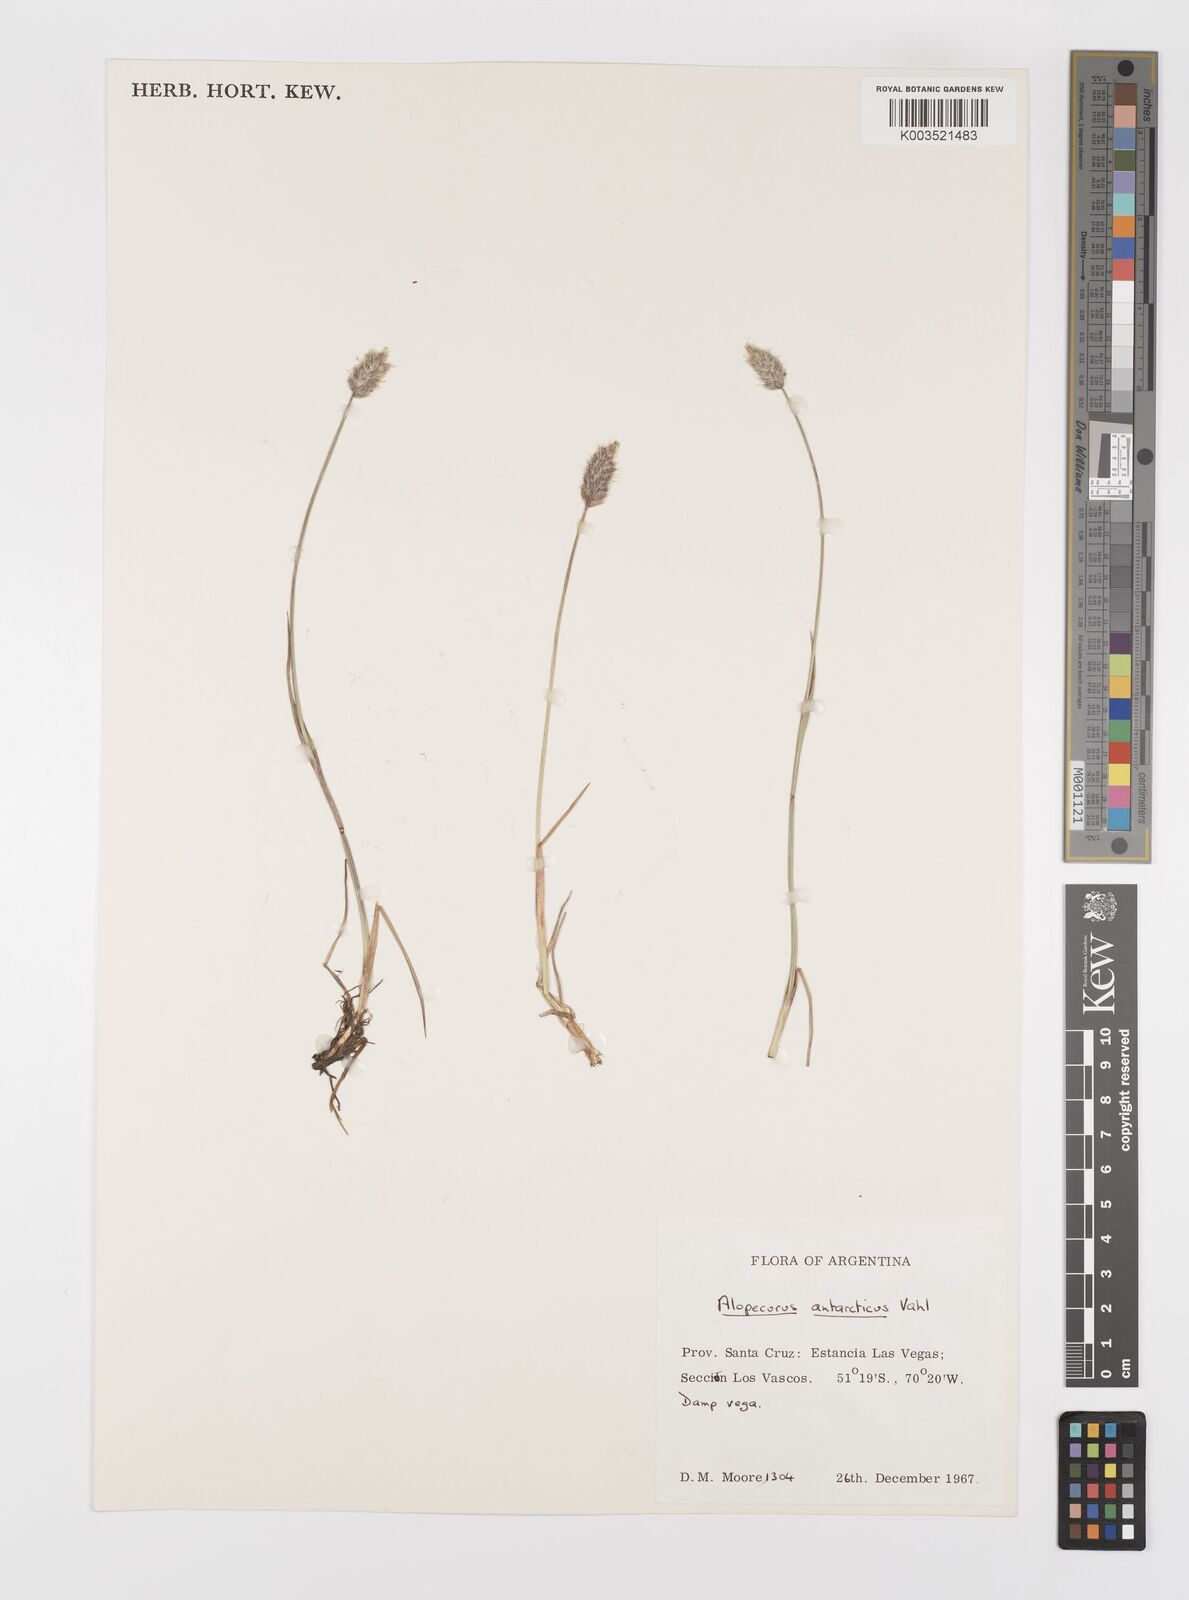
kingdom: Plantae
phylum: Tracheophyta
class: Liliopsida
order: Poales
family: Poaceae
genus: Alopecurus
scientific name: Alopecurus magellanicus
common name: Alpine foxtail
